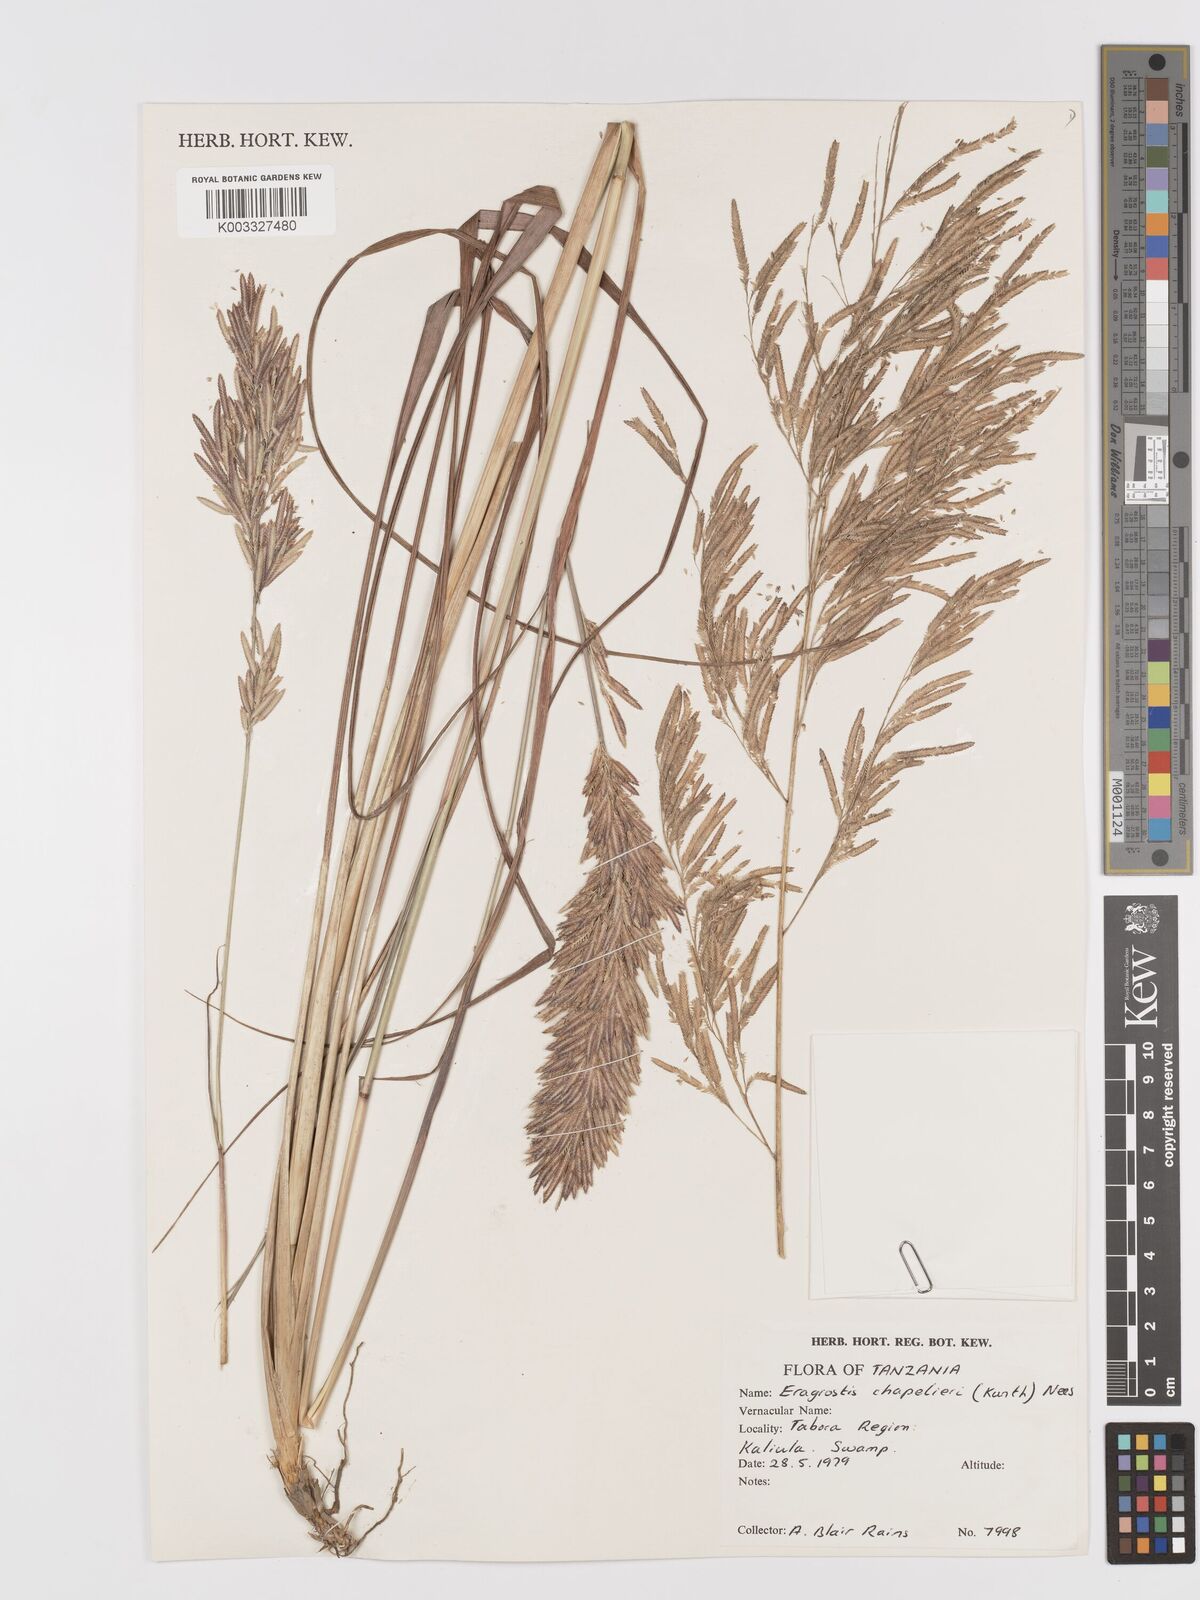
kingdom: Plantae
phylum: Tracheophyta
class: Liliopsida
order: Poales
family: Poaceae
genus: Eragrostis
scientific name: Eragrostis chapelieri
